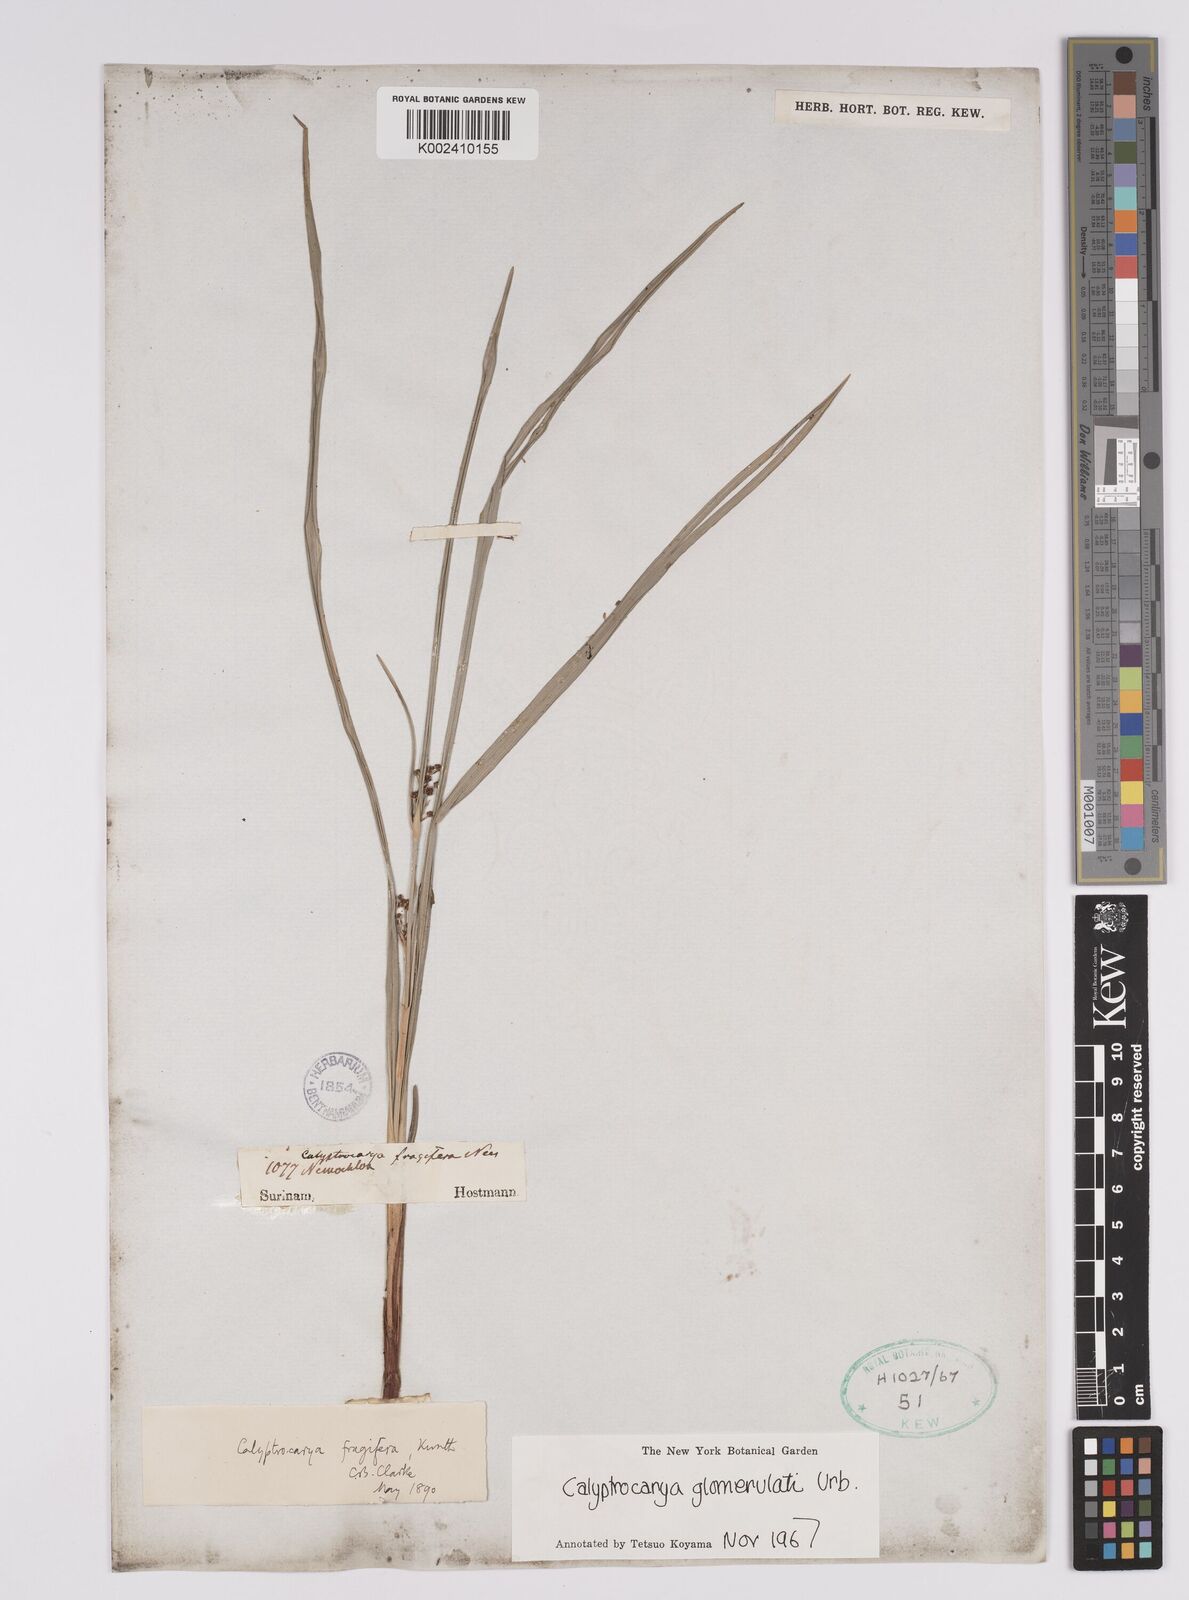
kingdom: Plantae
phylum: Tracheophyta
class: Liliopsida
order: Poales
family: Cyperaceae
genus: Calyptrocarya
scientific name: Calyptrocarya glomerulata
